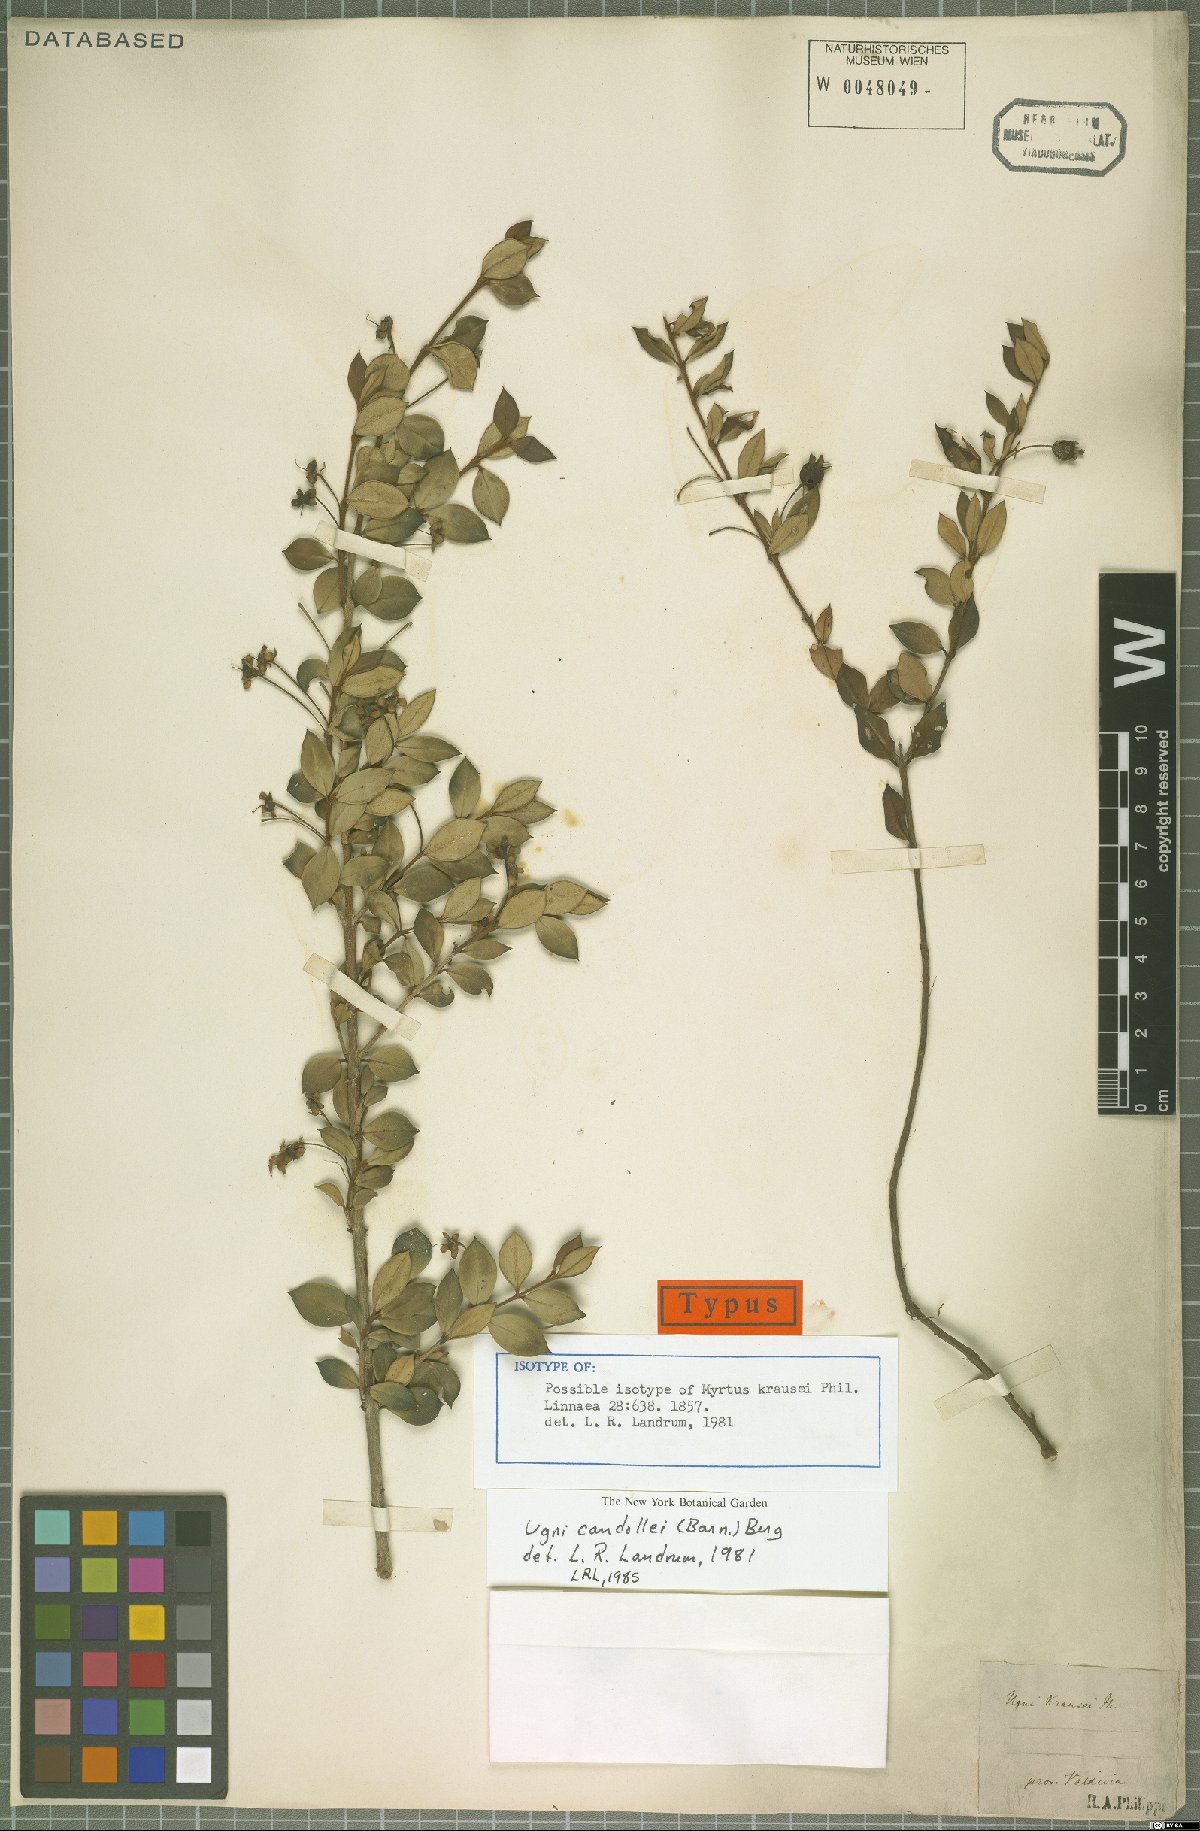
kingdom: Plantae
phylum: Tracheophyta
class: Magnoliopsida
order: Myrtales
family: Myrtaceae
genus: Ugni
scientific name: Ugni candollei
